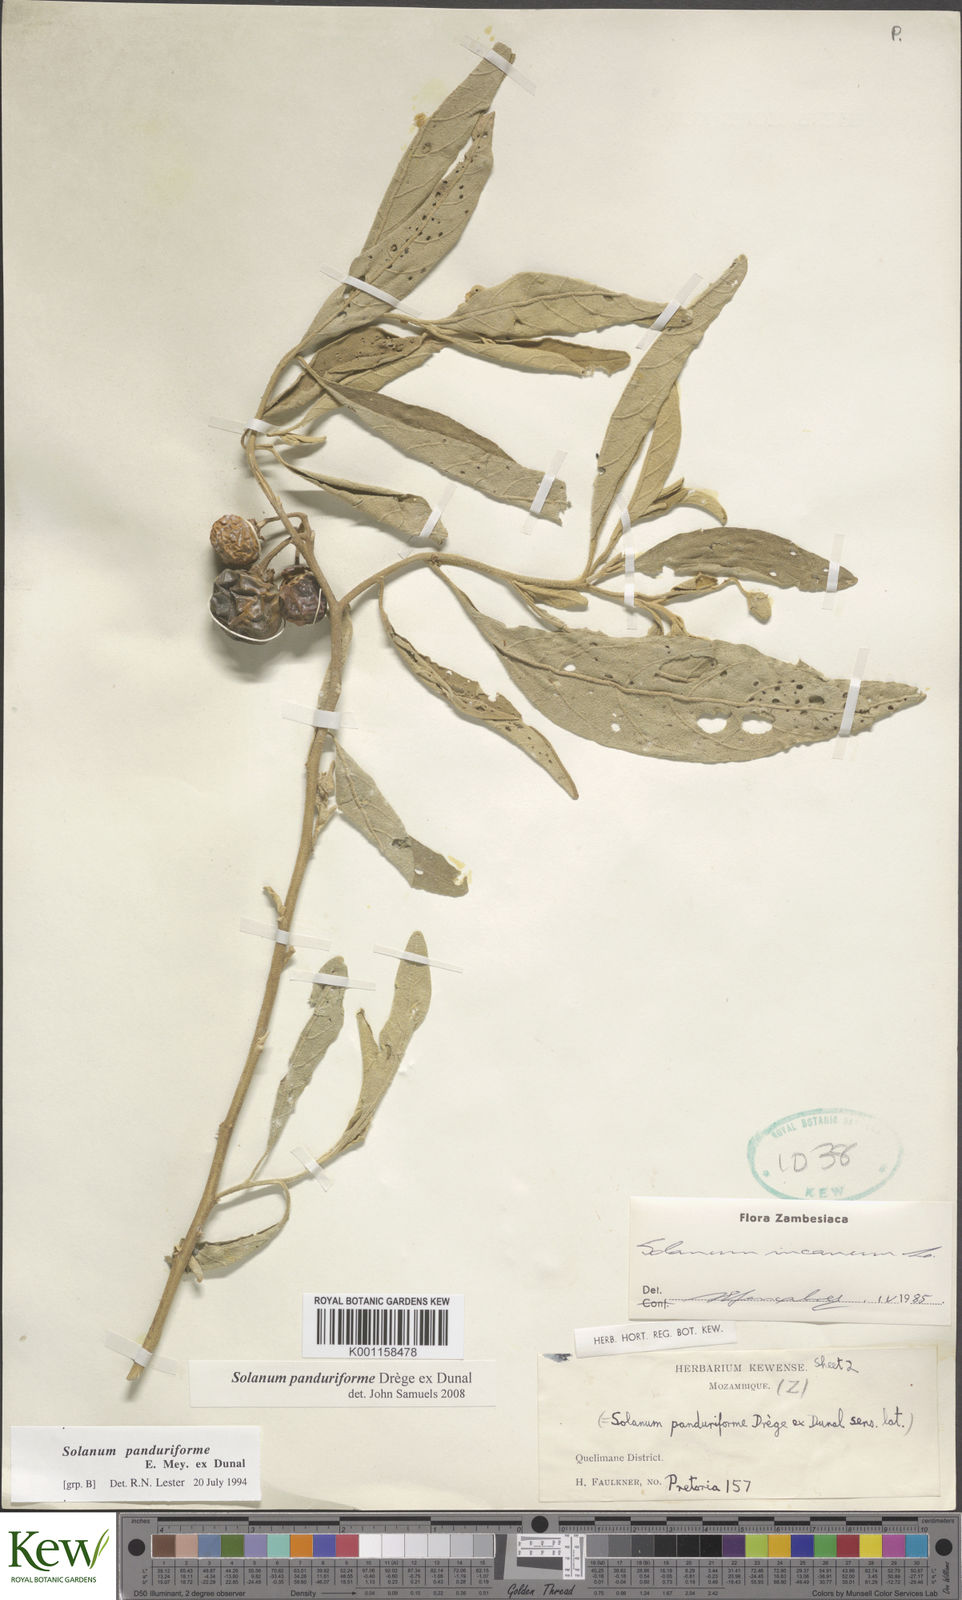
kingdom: Plantae
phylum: Tracheophyta
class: Magnoliopsida
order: Solanales
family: Solanaceae
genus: Solanum
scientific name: Solanum campylacanthum
